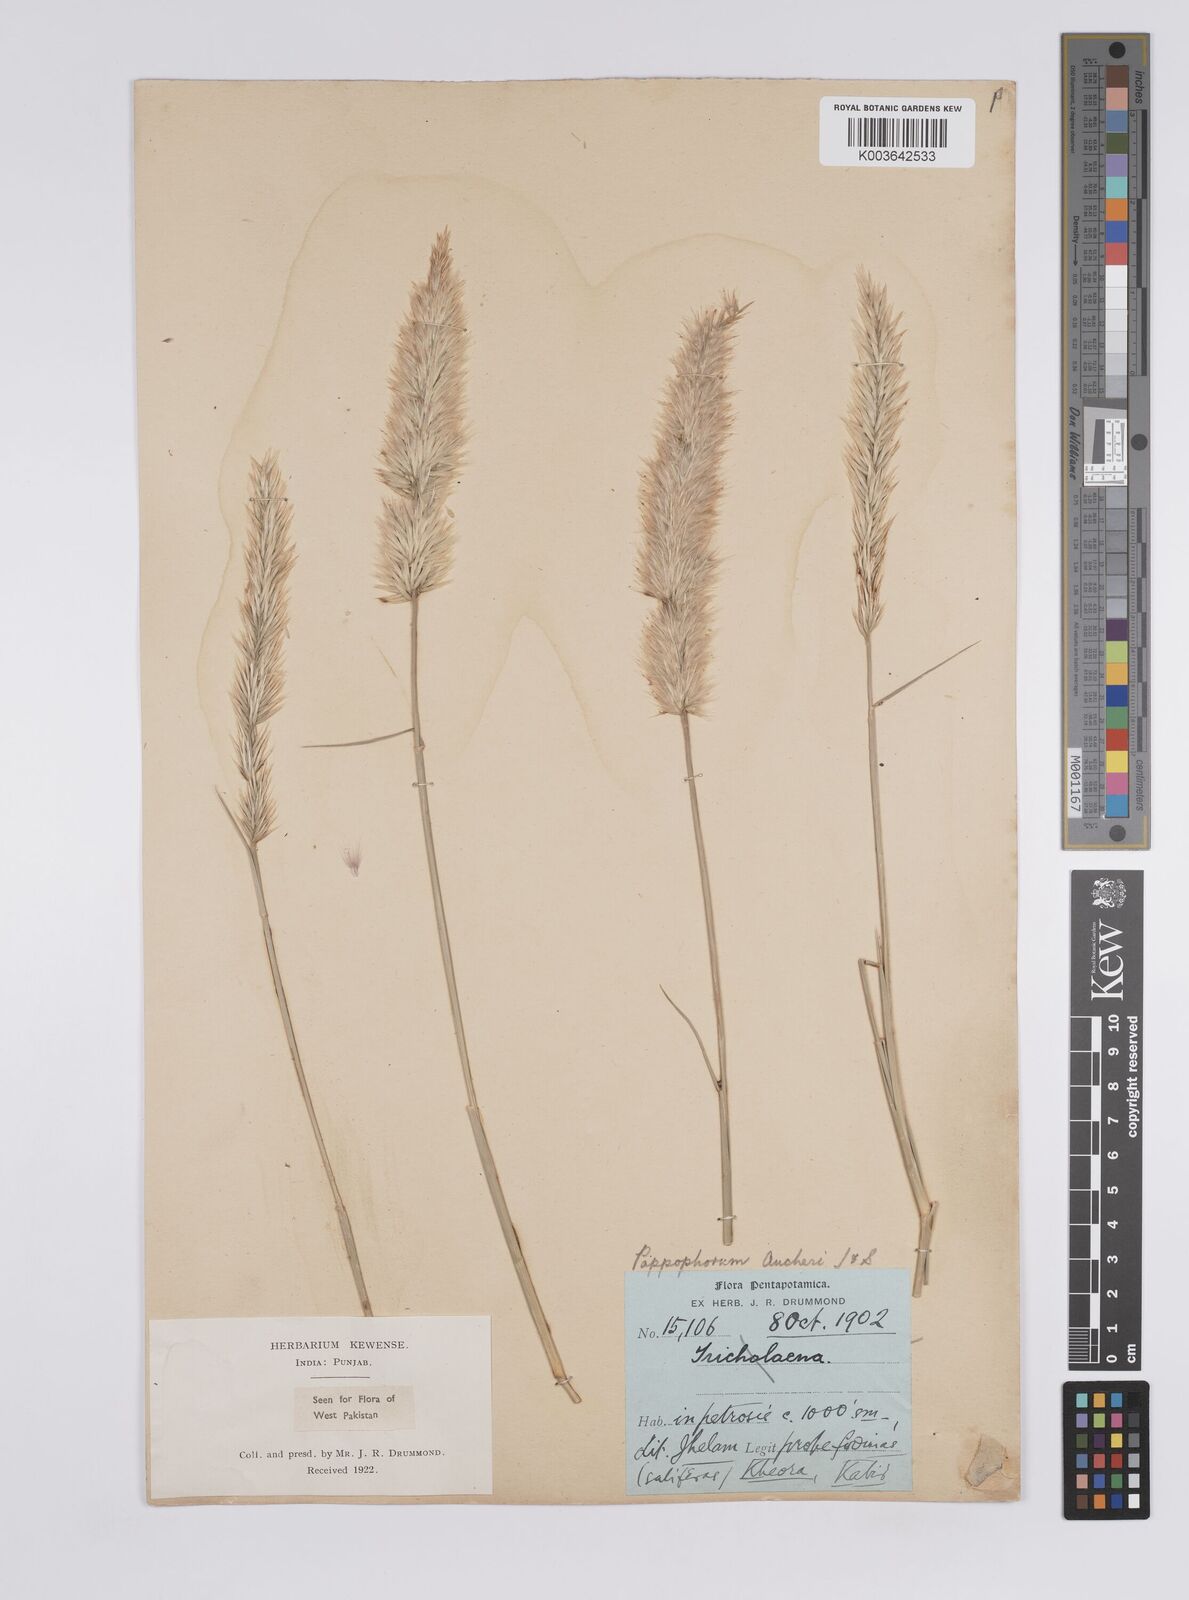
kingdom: Plantae
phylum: Tracheophyta
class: Liliopsida
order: Poales
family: Poaceae
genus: Enneapogon
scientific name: Enneapogon persicus
